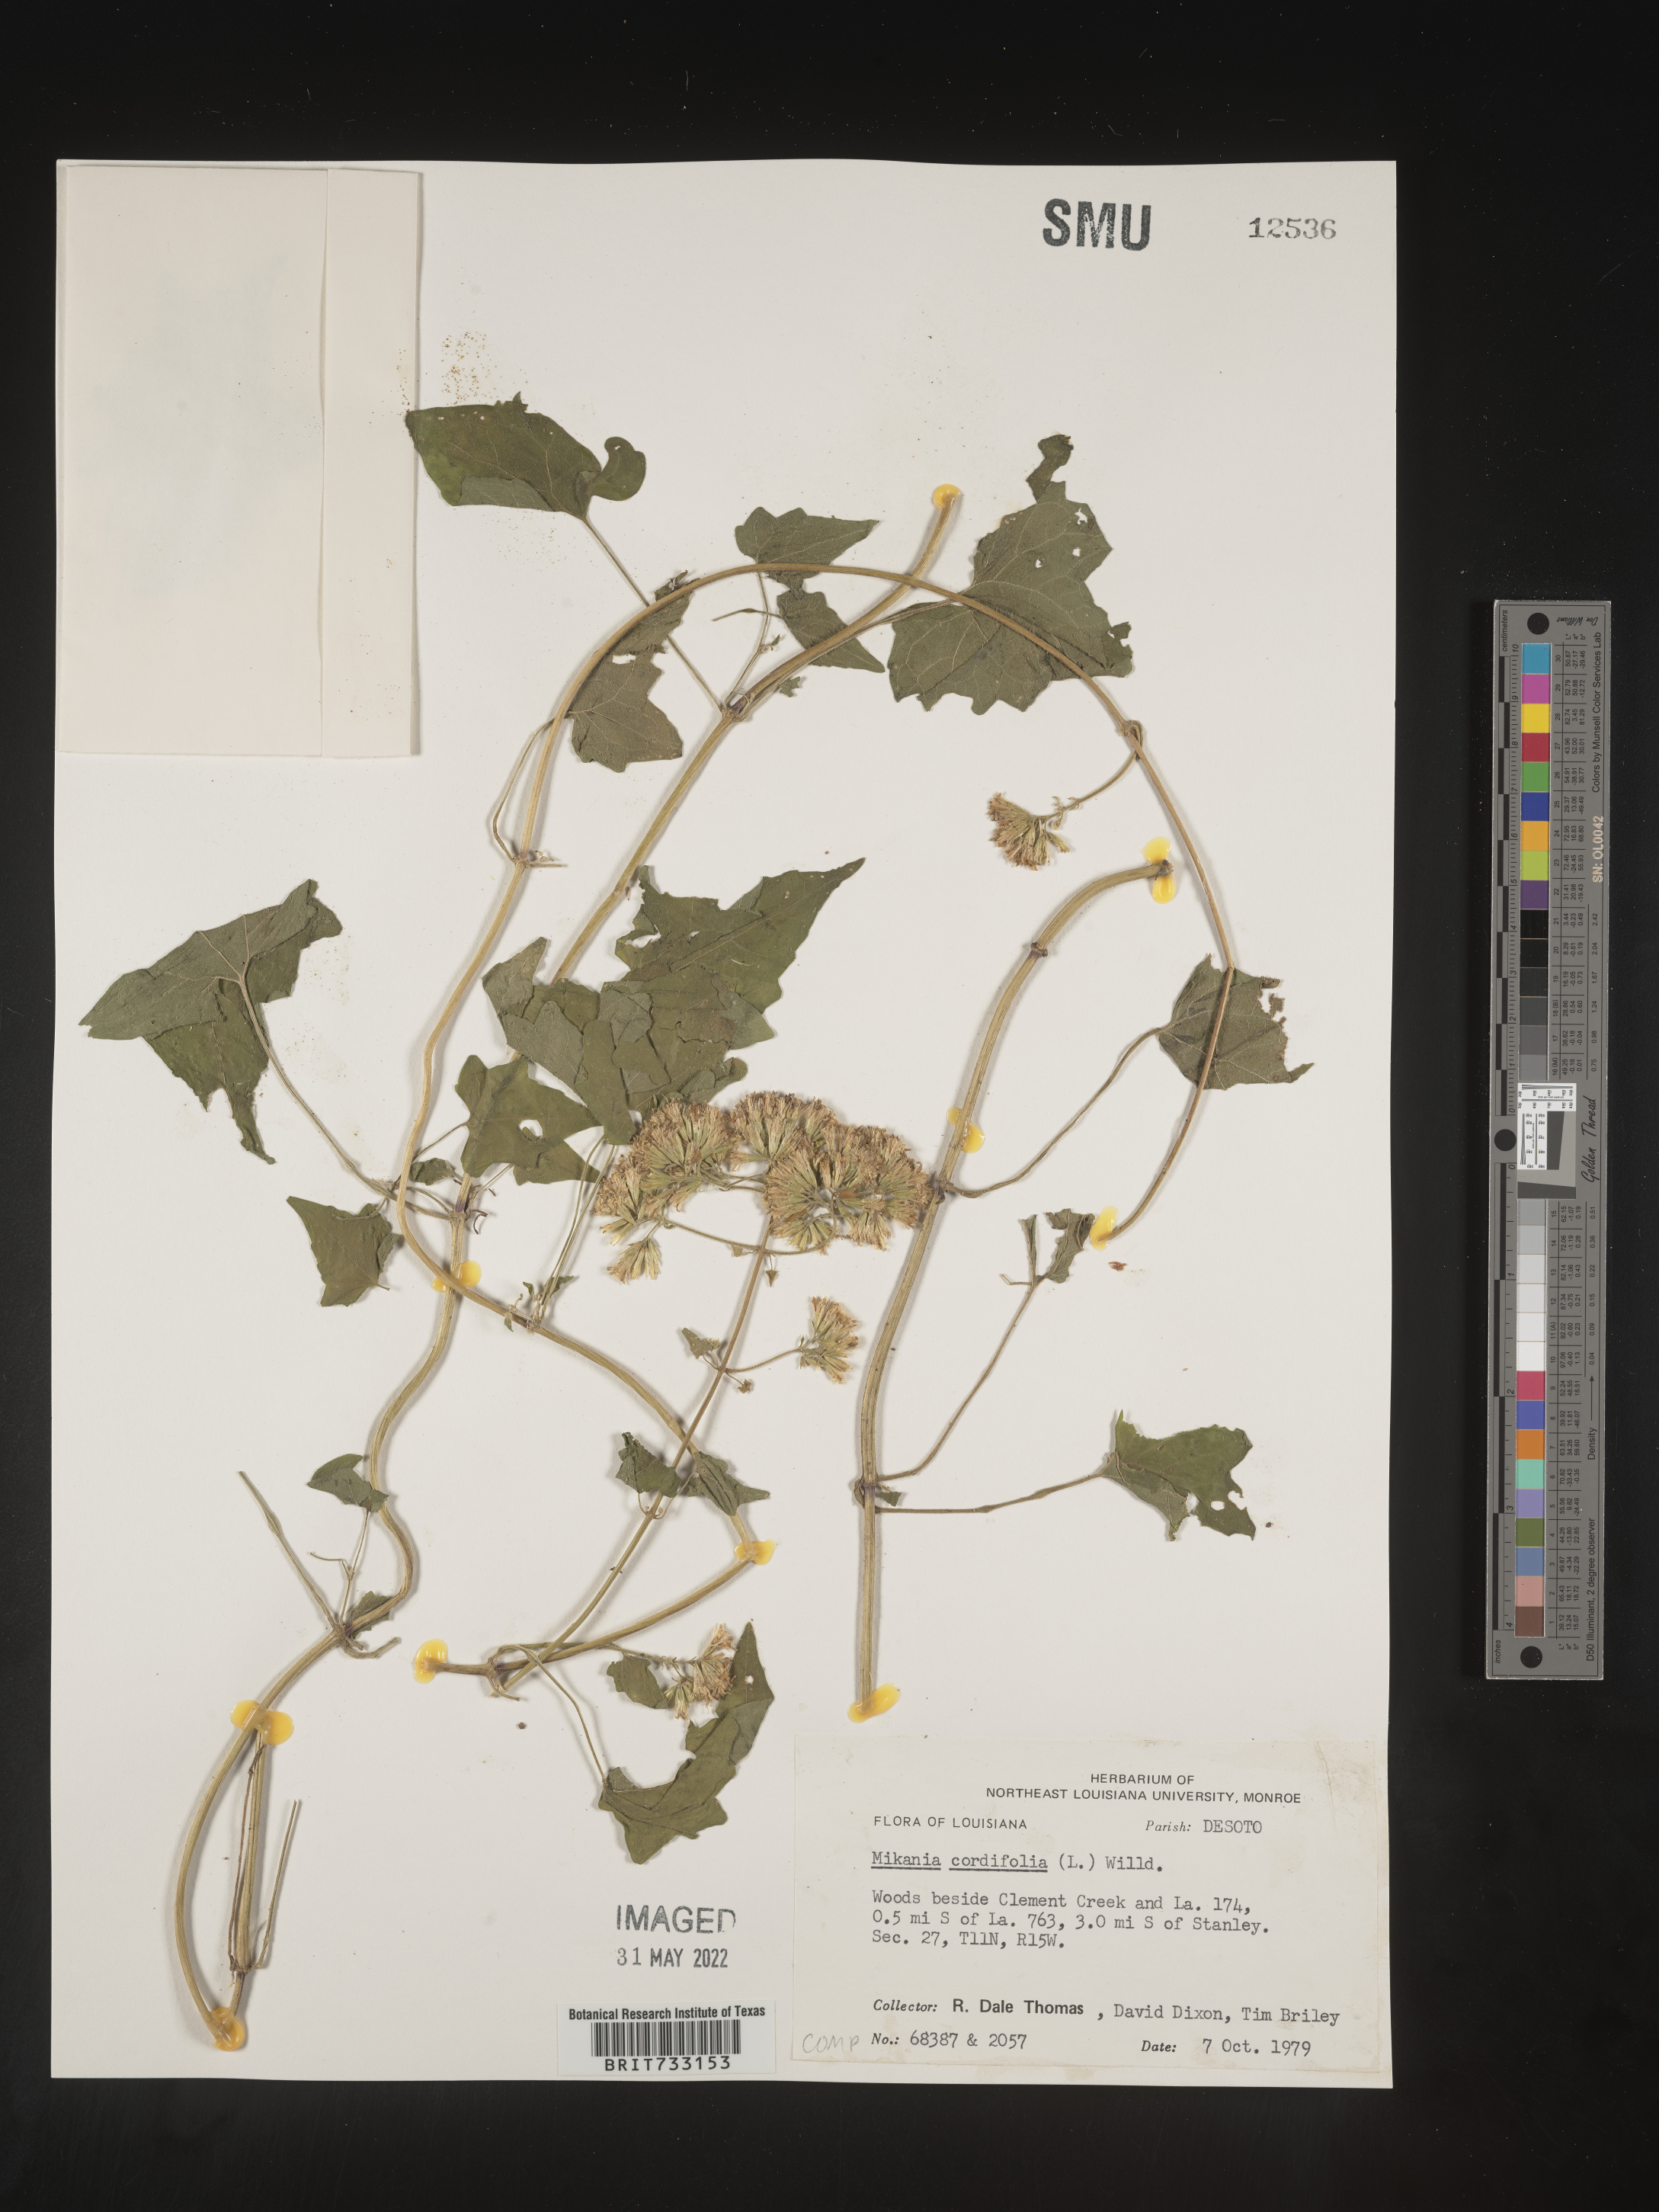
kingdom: Plantae
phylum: Tracheophyta
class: Magnoliopsida
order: Asterales
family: Asteraceae
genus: Mikania
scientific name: Mikania
